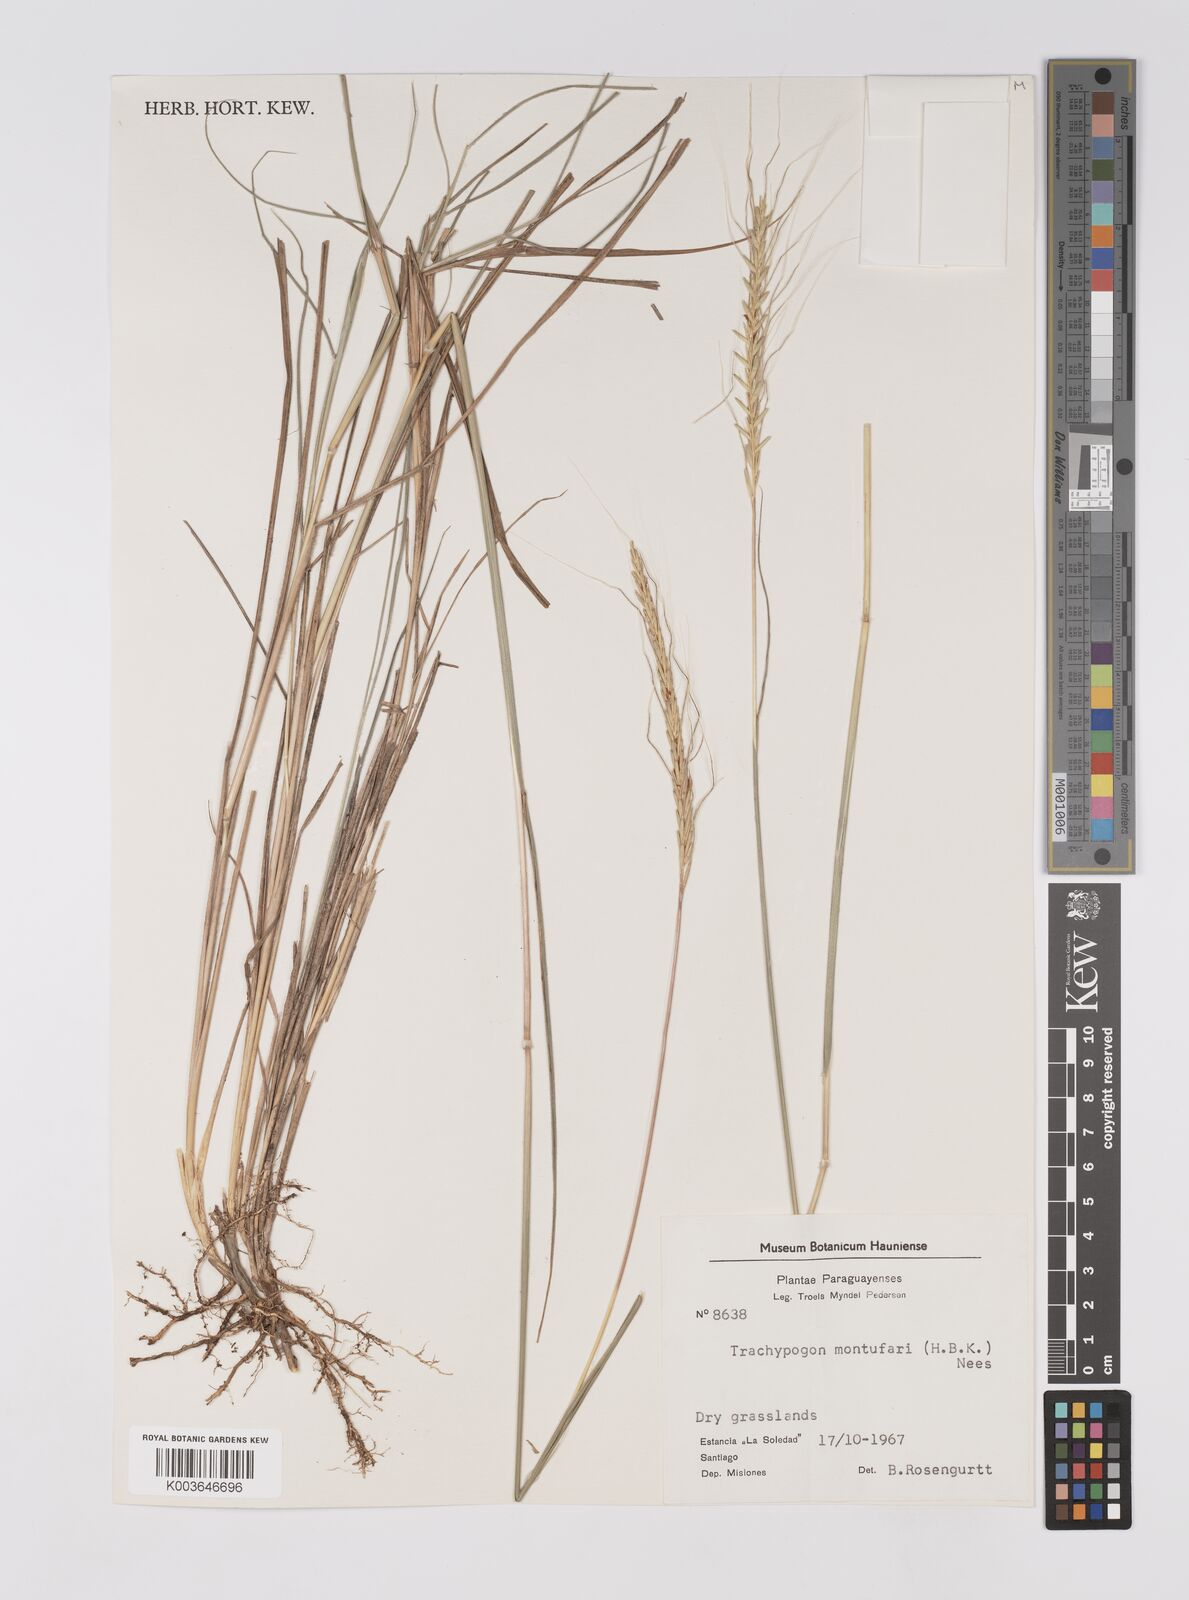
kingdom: Plantae
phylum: Tracheophyta
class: Liliopsida
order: Poales
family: Poaceae
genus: Trachypogon
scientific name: Trachypogon spicatus
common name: Crinkle-awn
